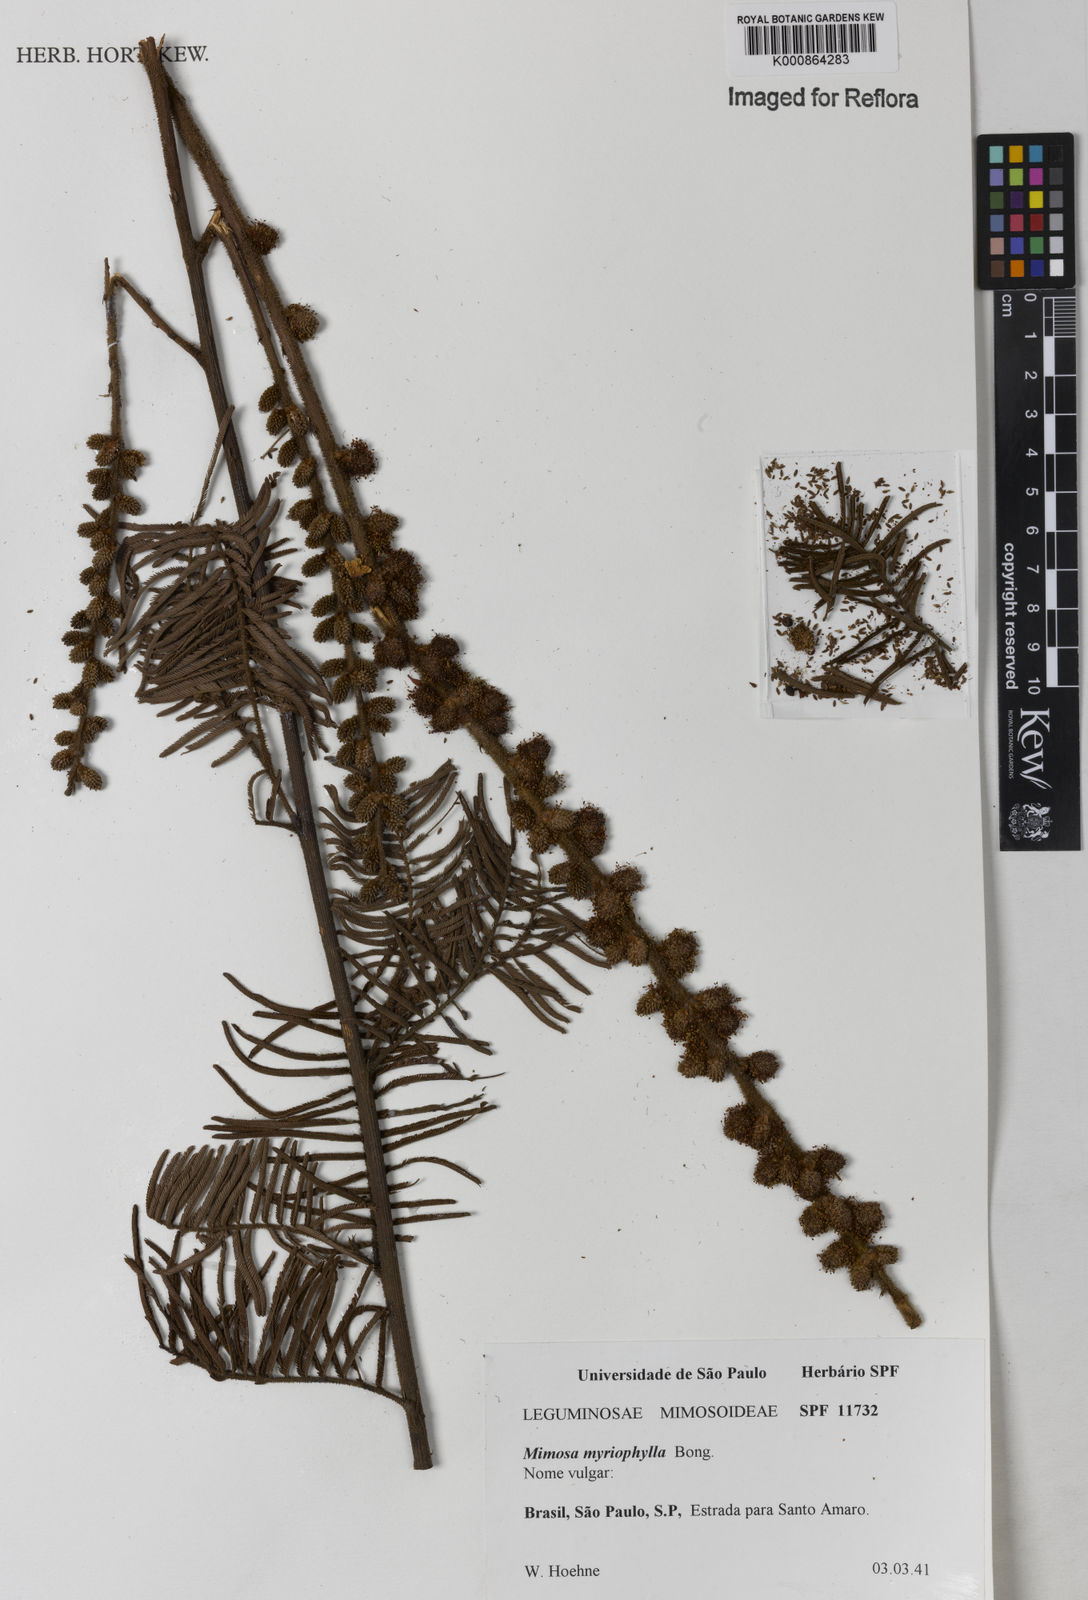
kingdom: Plantae
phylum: Tracheophyta
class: Magnoliopsida
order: Fabales
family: Fabaceae
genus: Mimosa
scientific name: Mimosa
